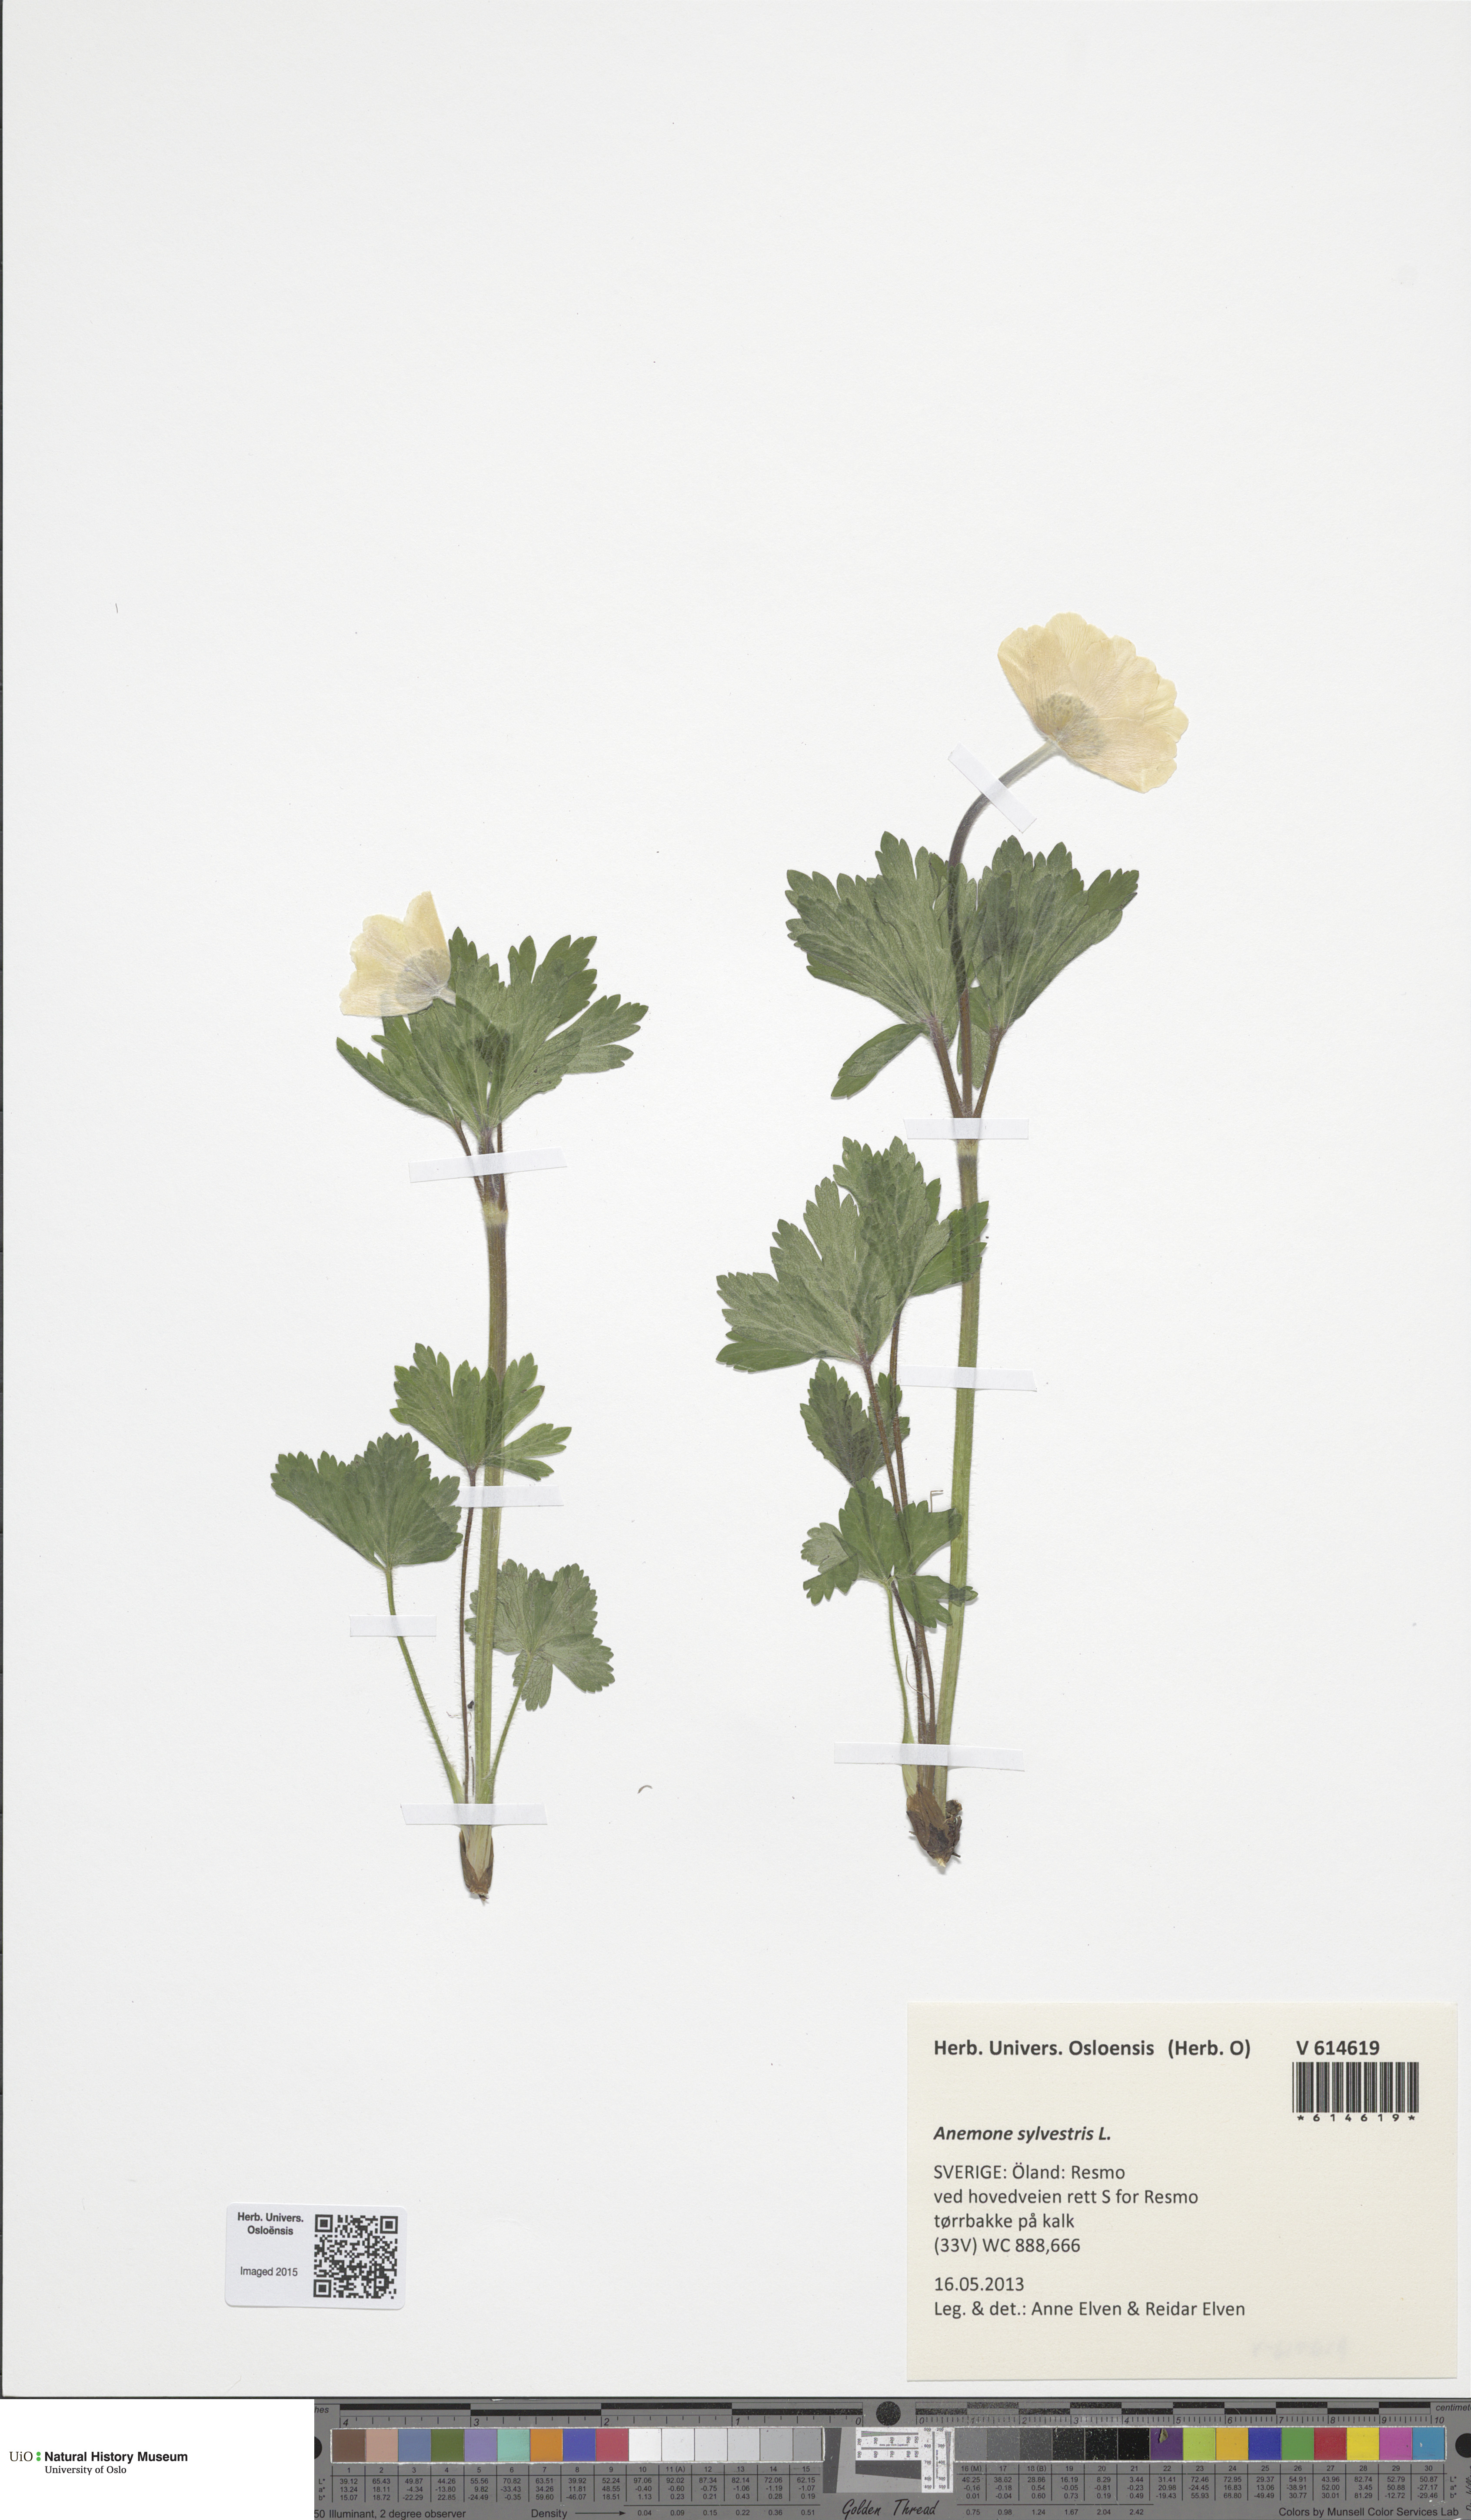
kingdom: Plantae
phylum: Tracheophyta
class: Magnoliopsida
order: Ranunculales
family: Ranunculaceae
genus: Anemone
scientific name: Anemone sylvestris
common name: Snowdrop anemone
